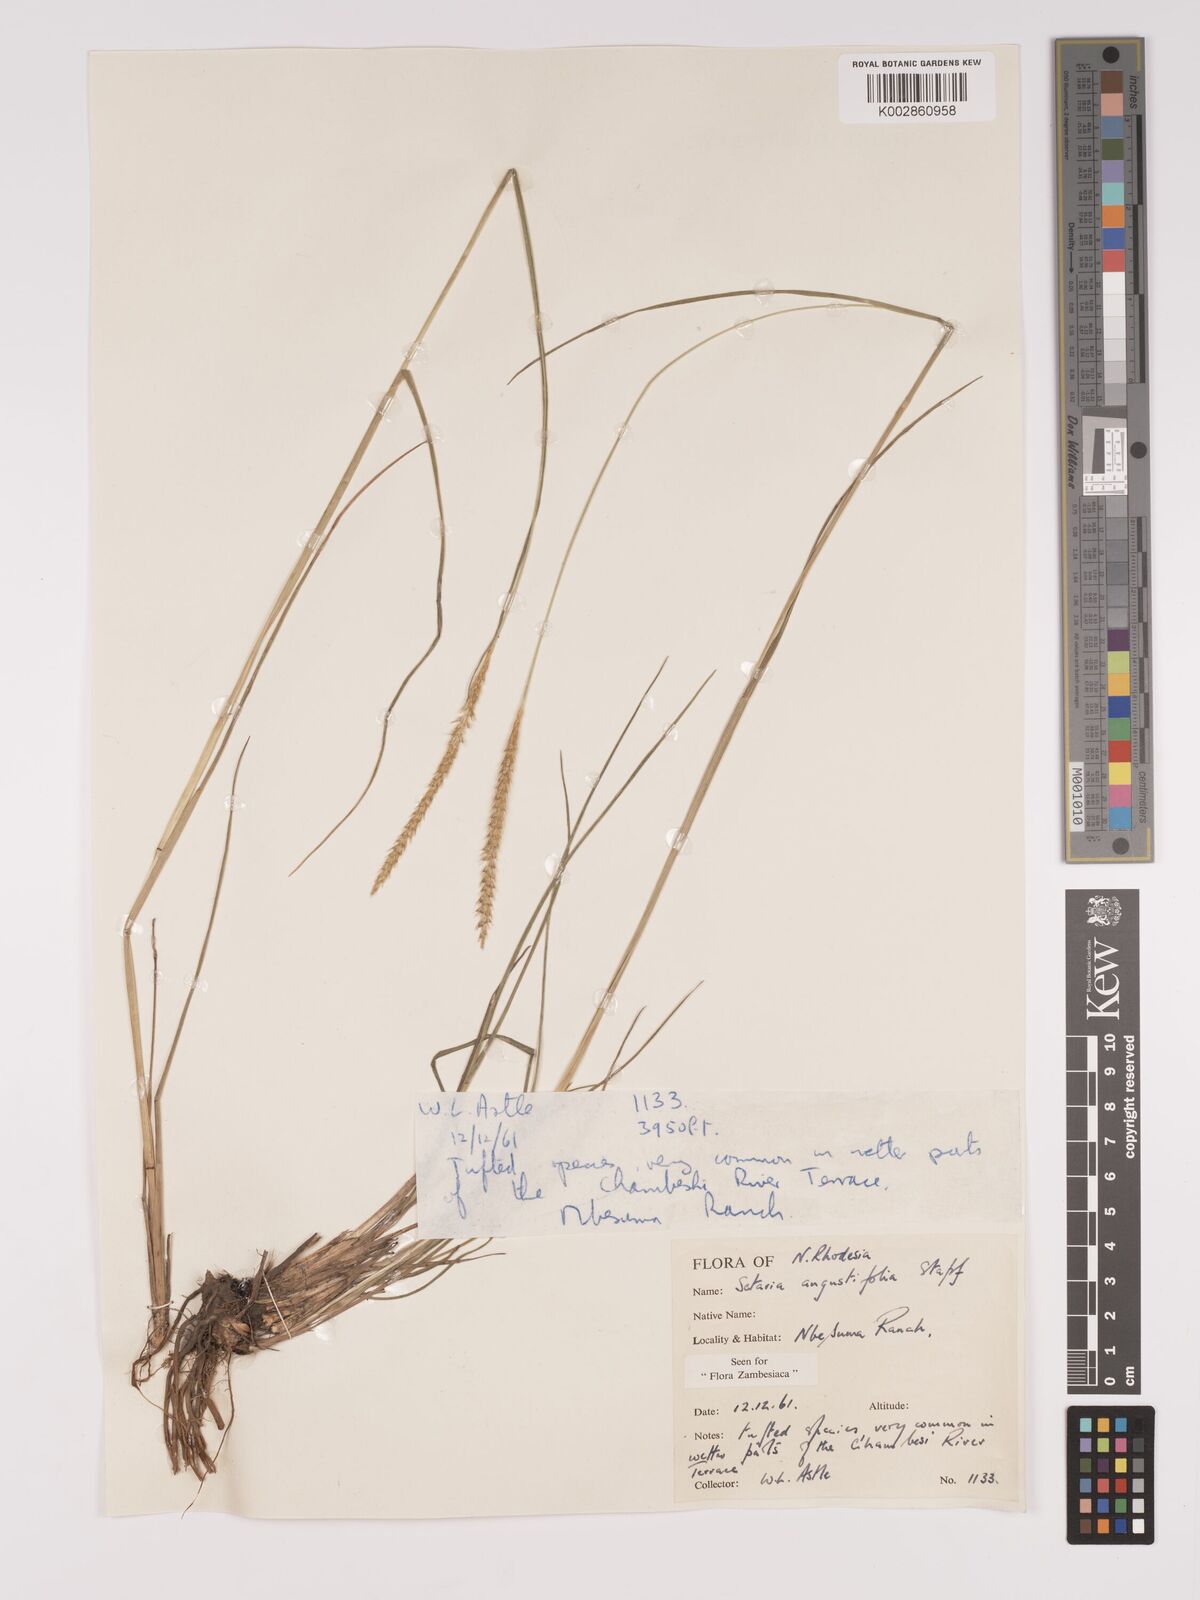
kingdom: Plantae
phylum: Tracheophyta
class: Liliopsida
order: Poales
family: Poaceae
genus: Setaria
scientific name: Setaria
